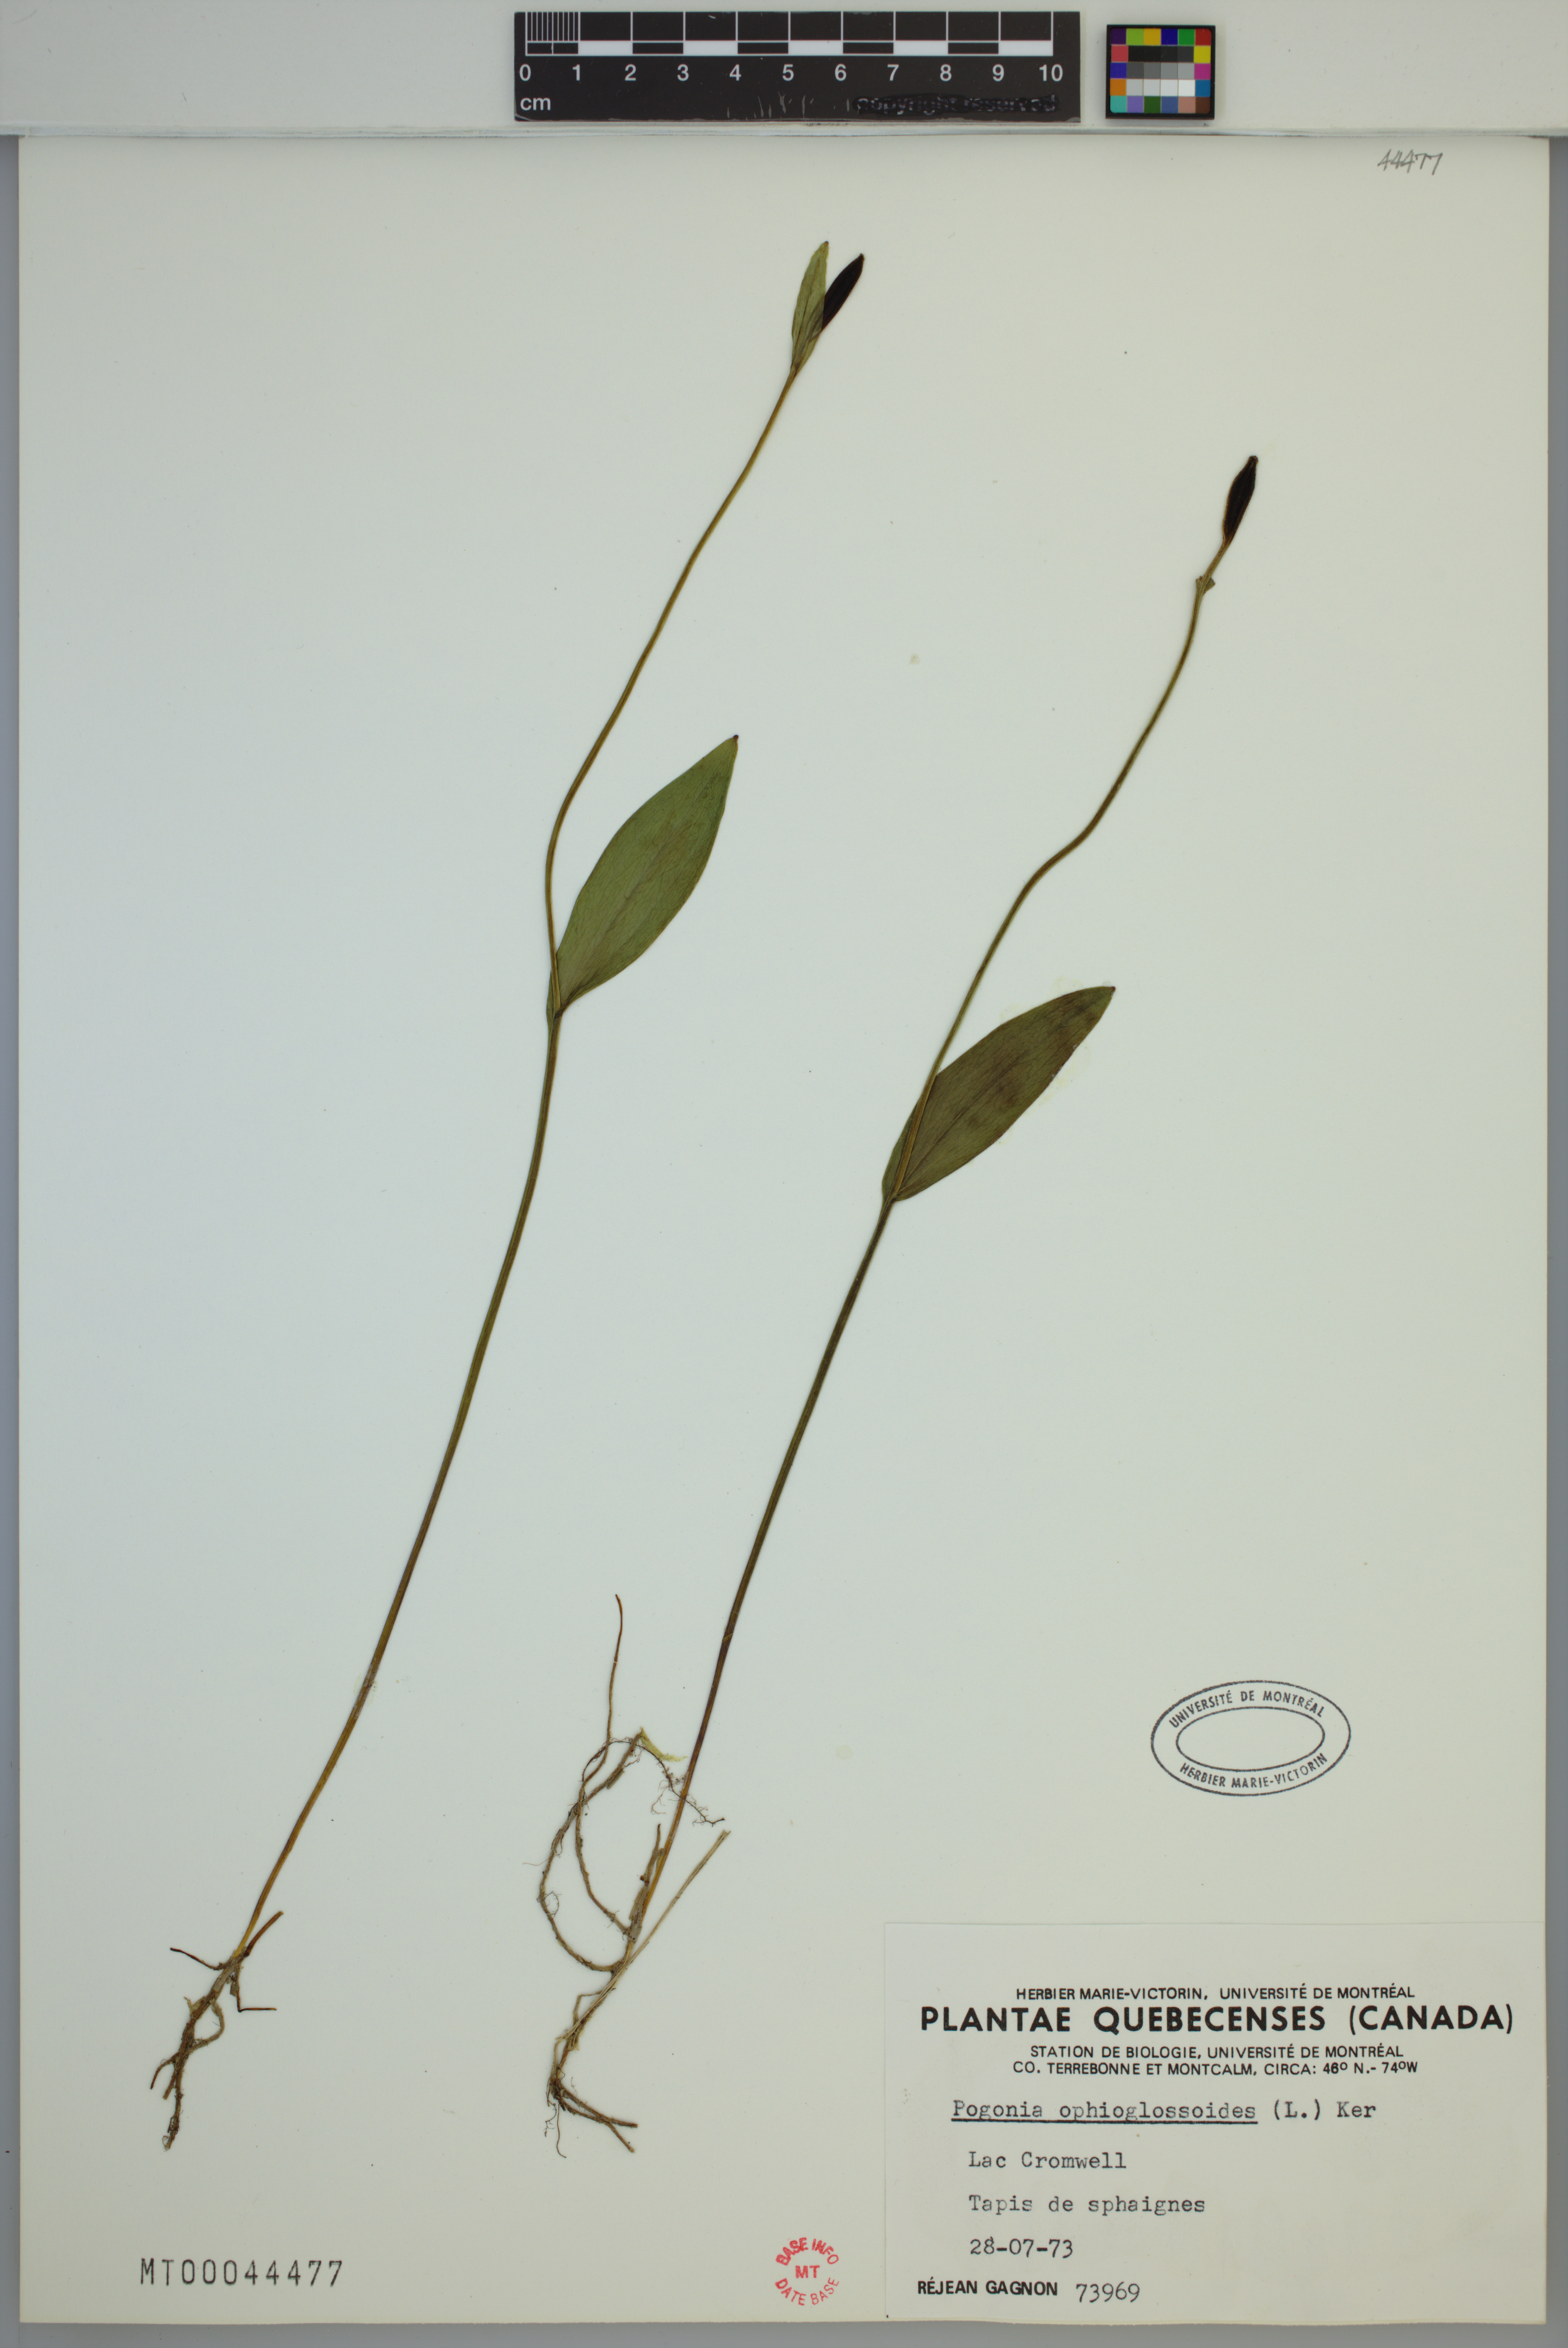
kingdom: Plantae
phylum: Tracheophyta
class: Liliopsida
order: Asparagales
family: Orchidaceae
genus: Pogonia
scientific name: Pogonia ophioglossoides
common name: Rose pogonia
